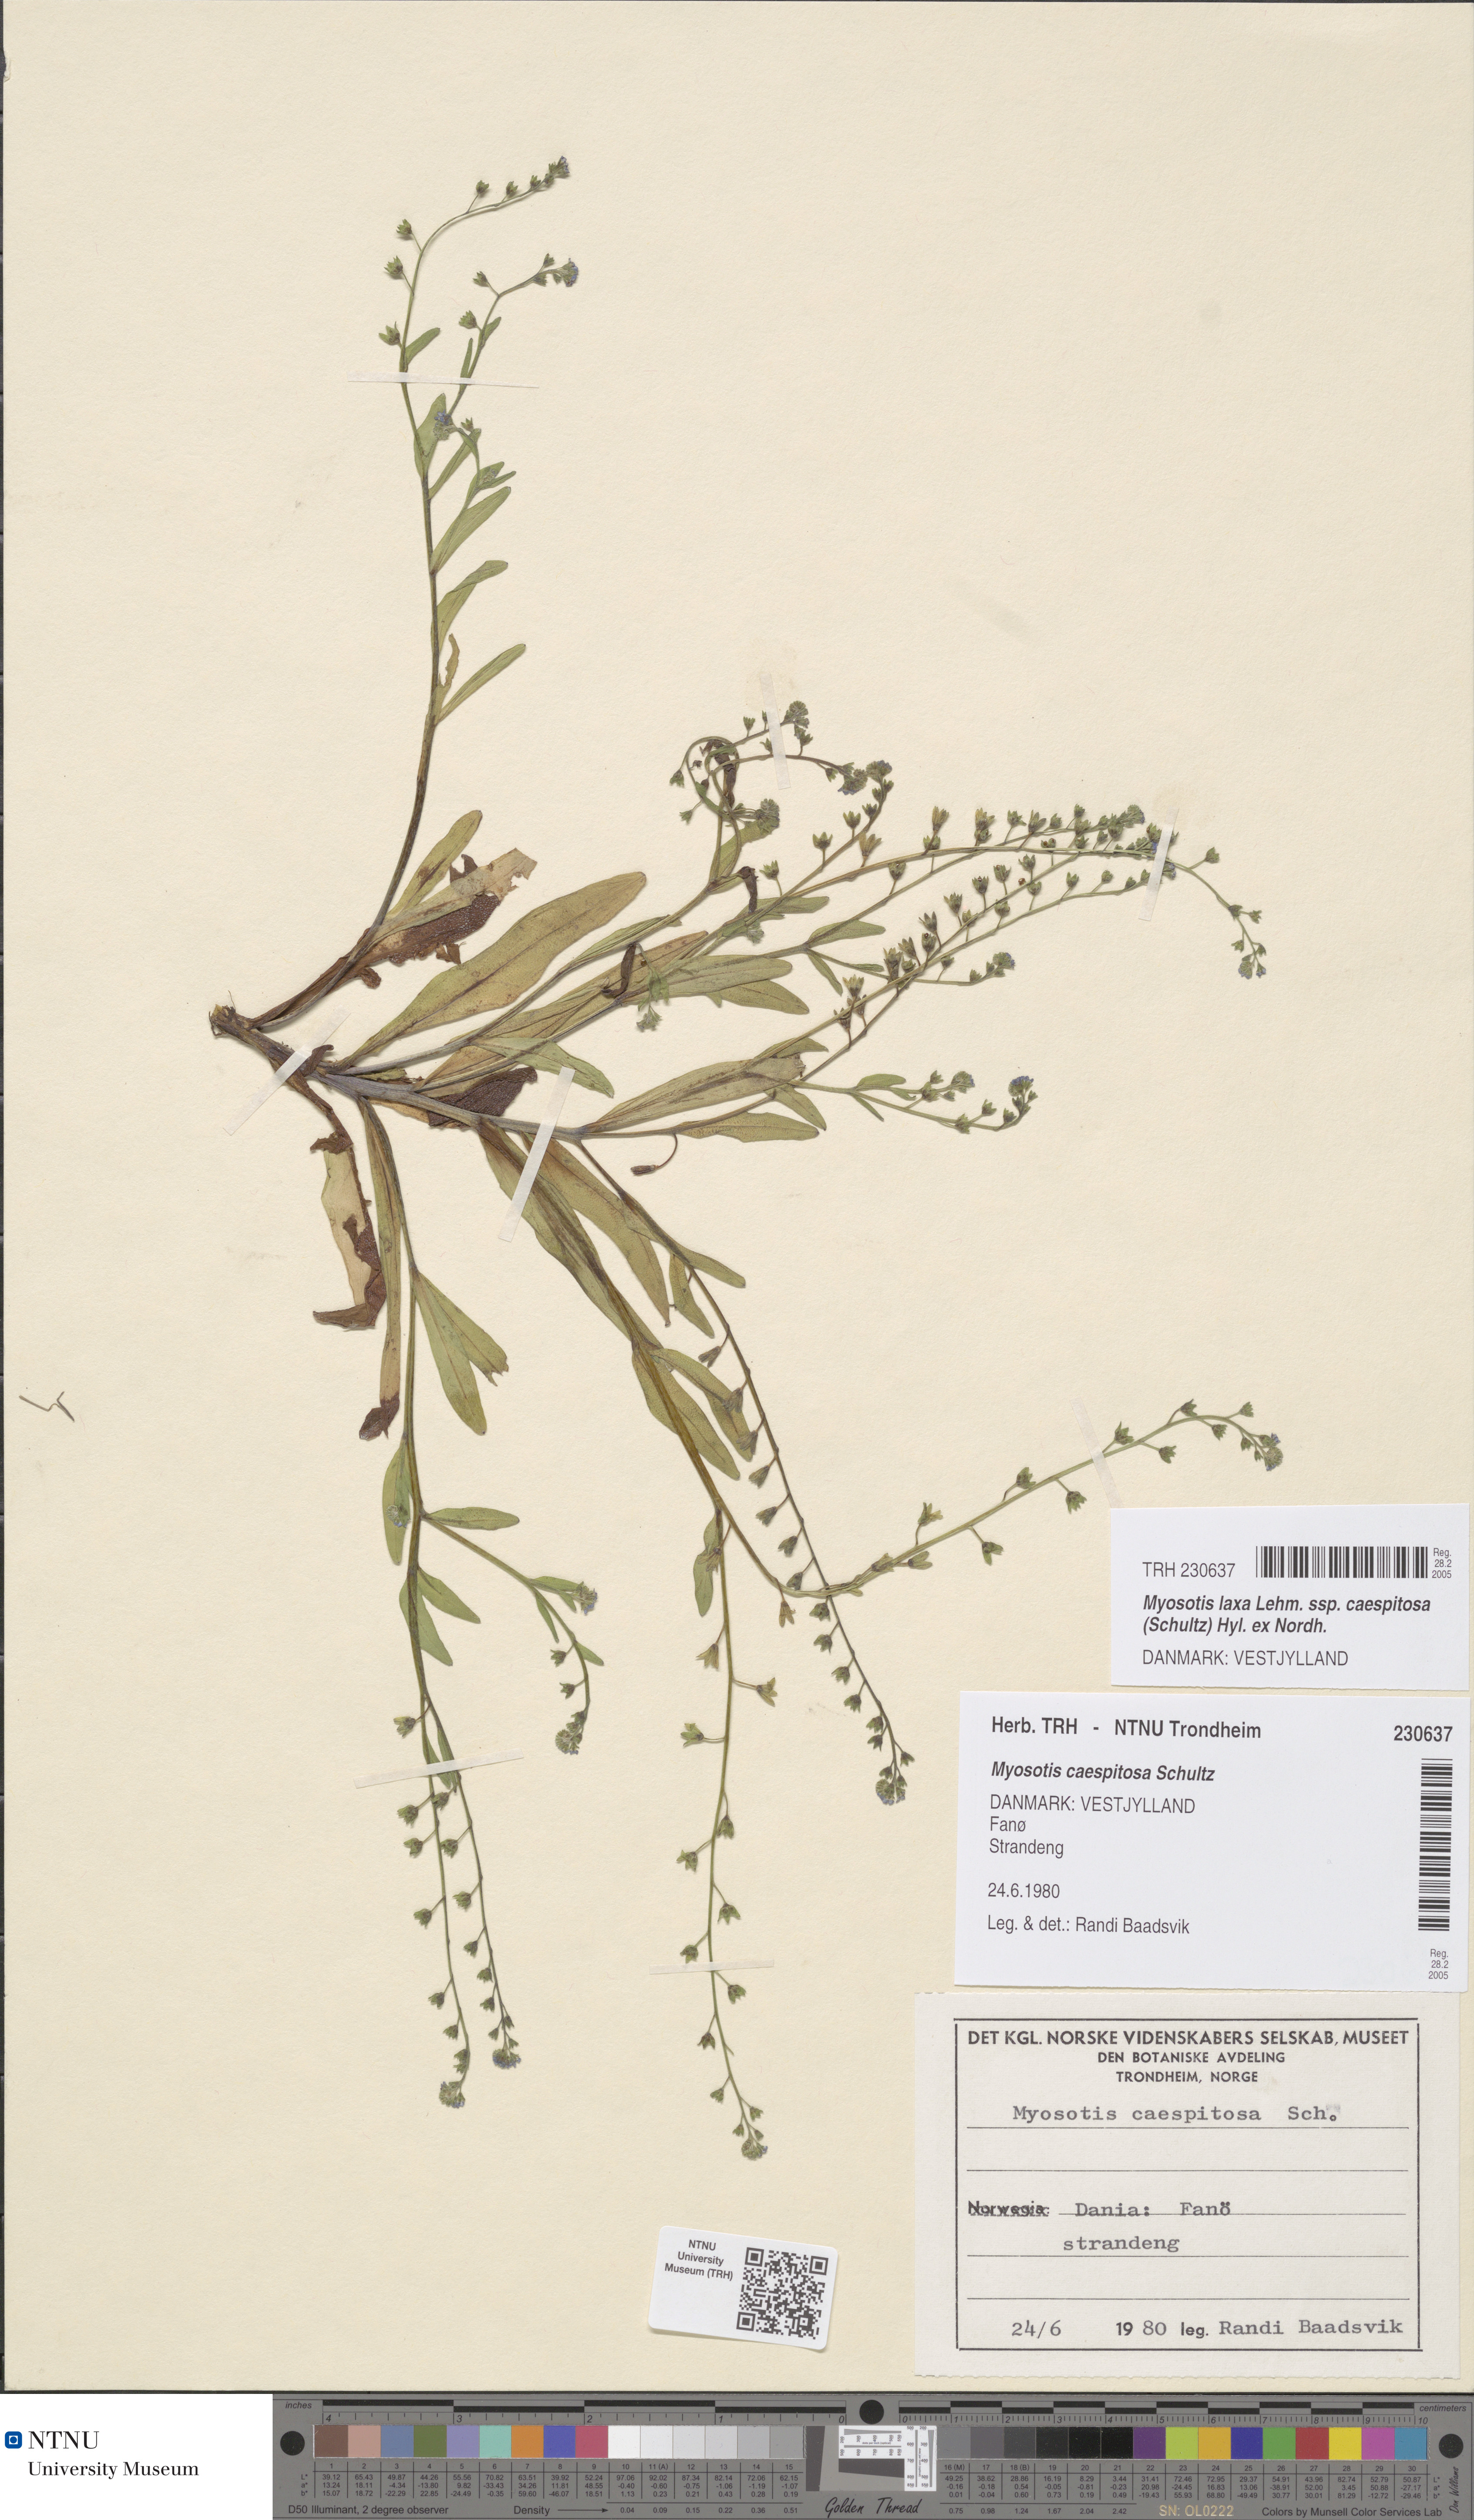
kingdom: Plantae
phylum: Tracheophyta
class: Magnoliopsida
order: Boraginales
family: Boraginaceae
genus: Myosotis
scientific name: Myosotis laxa
